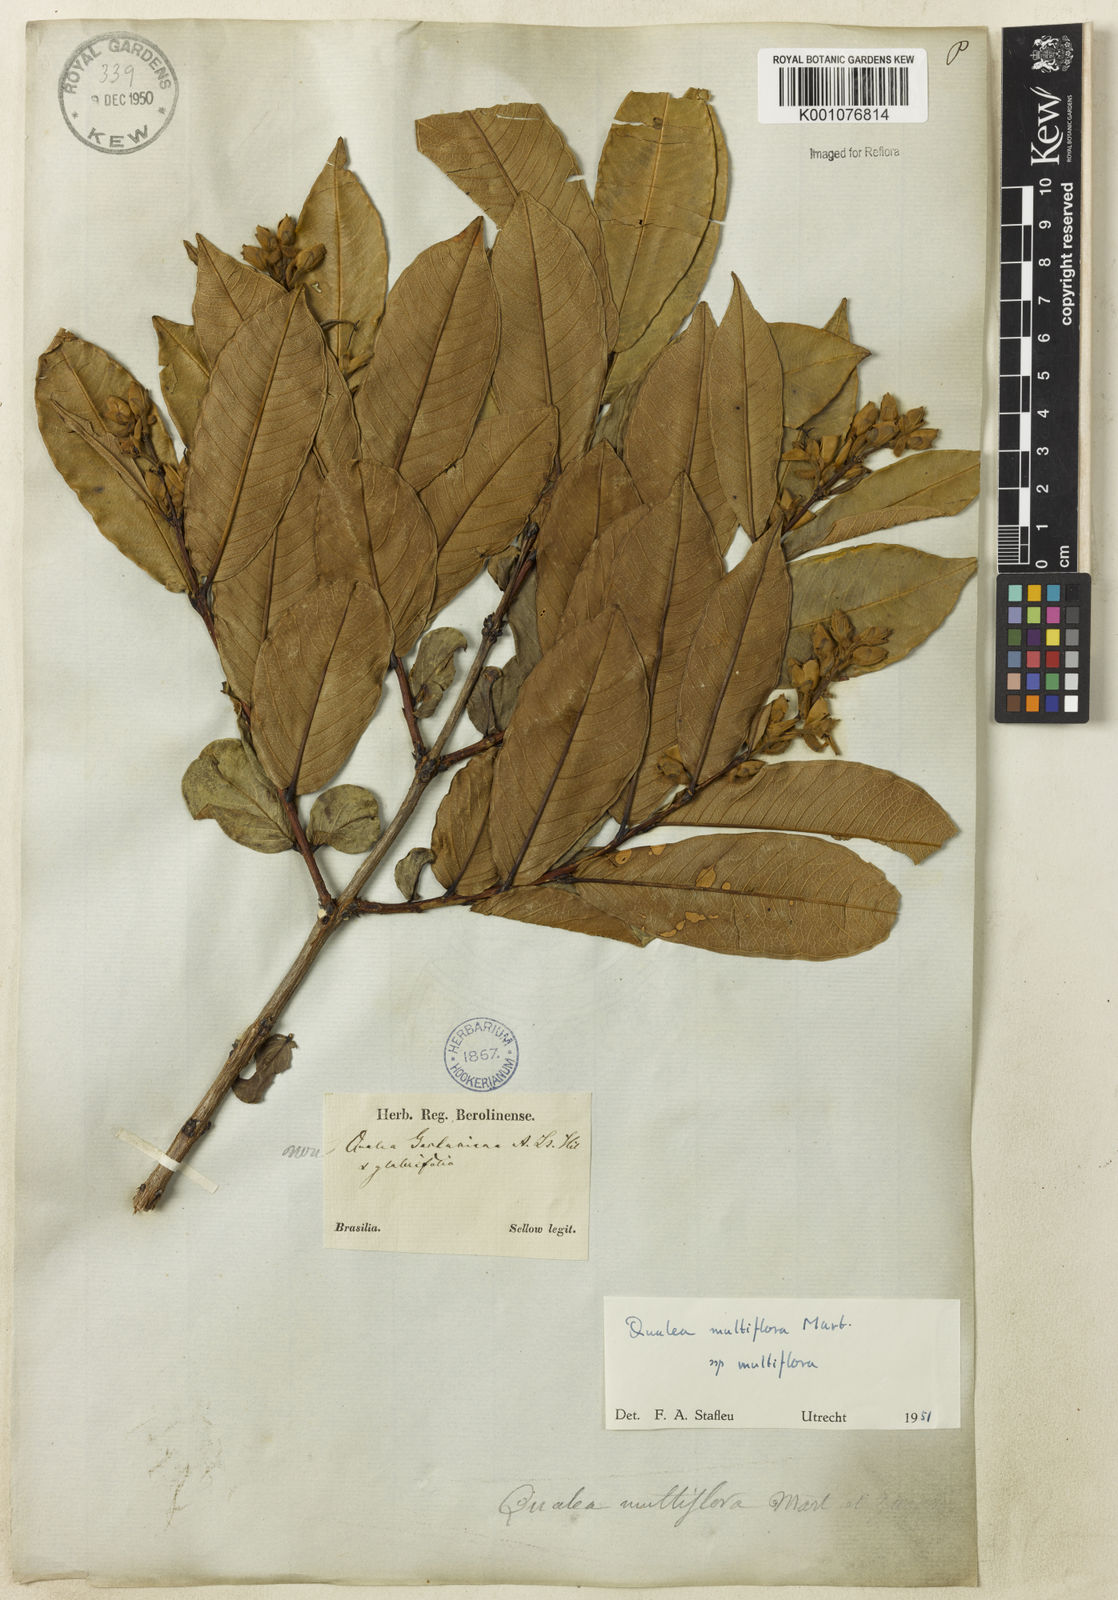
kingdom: Plantae
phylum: Tracheophyta
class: Magnoliopsida
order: Myrtales
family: Vochysiaceae
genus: Qualea
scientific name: Qualea multiflora
